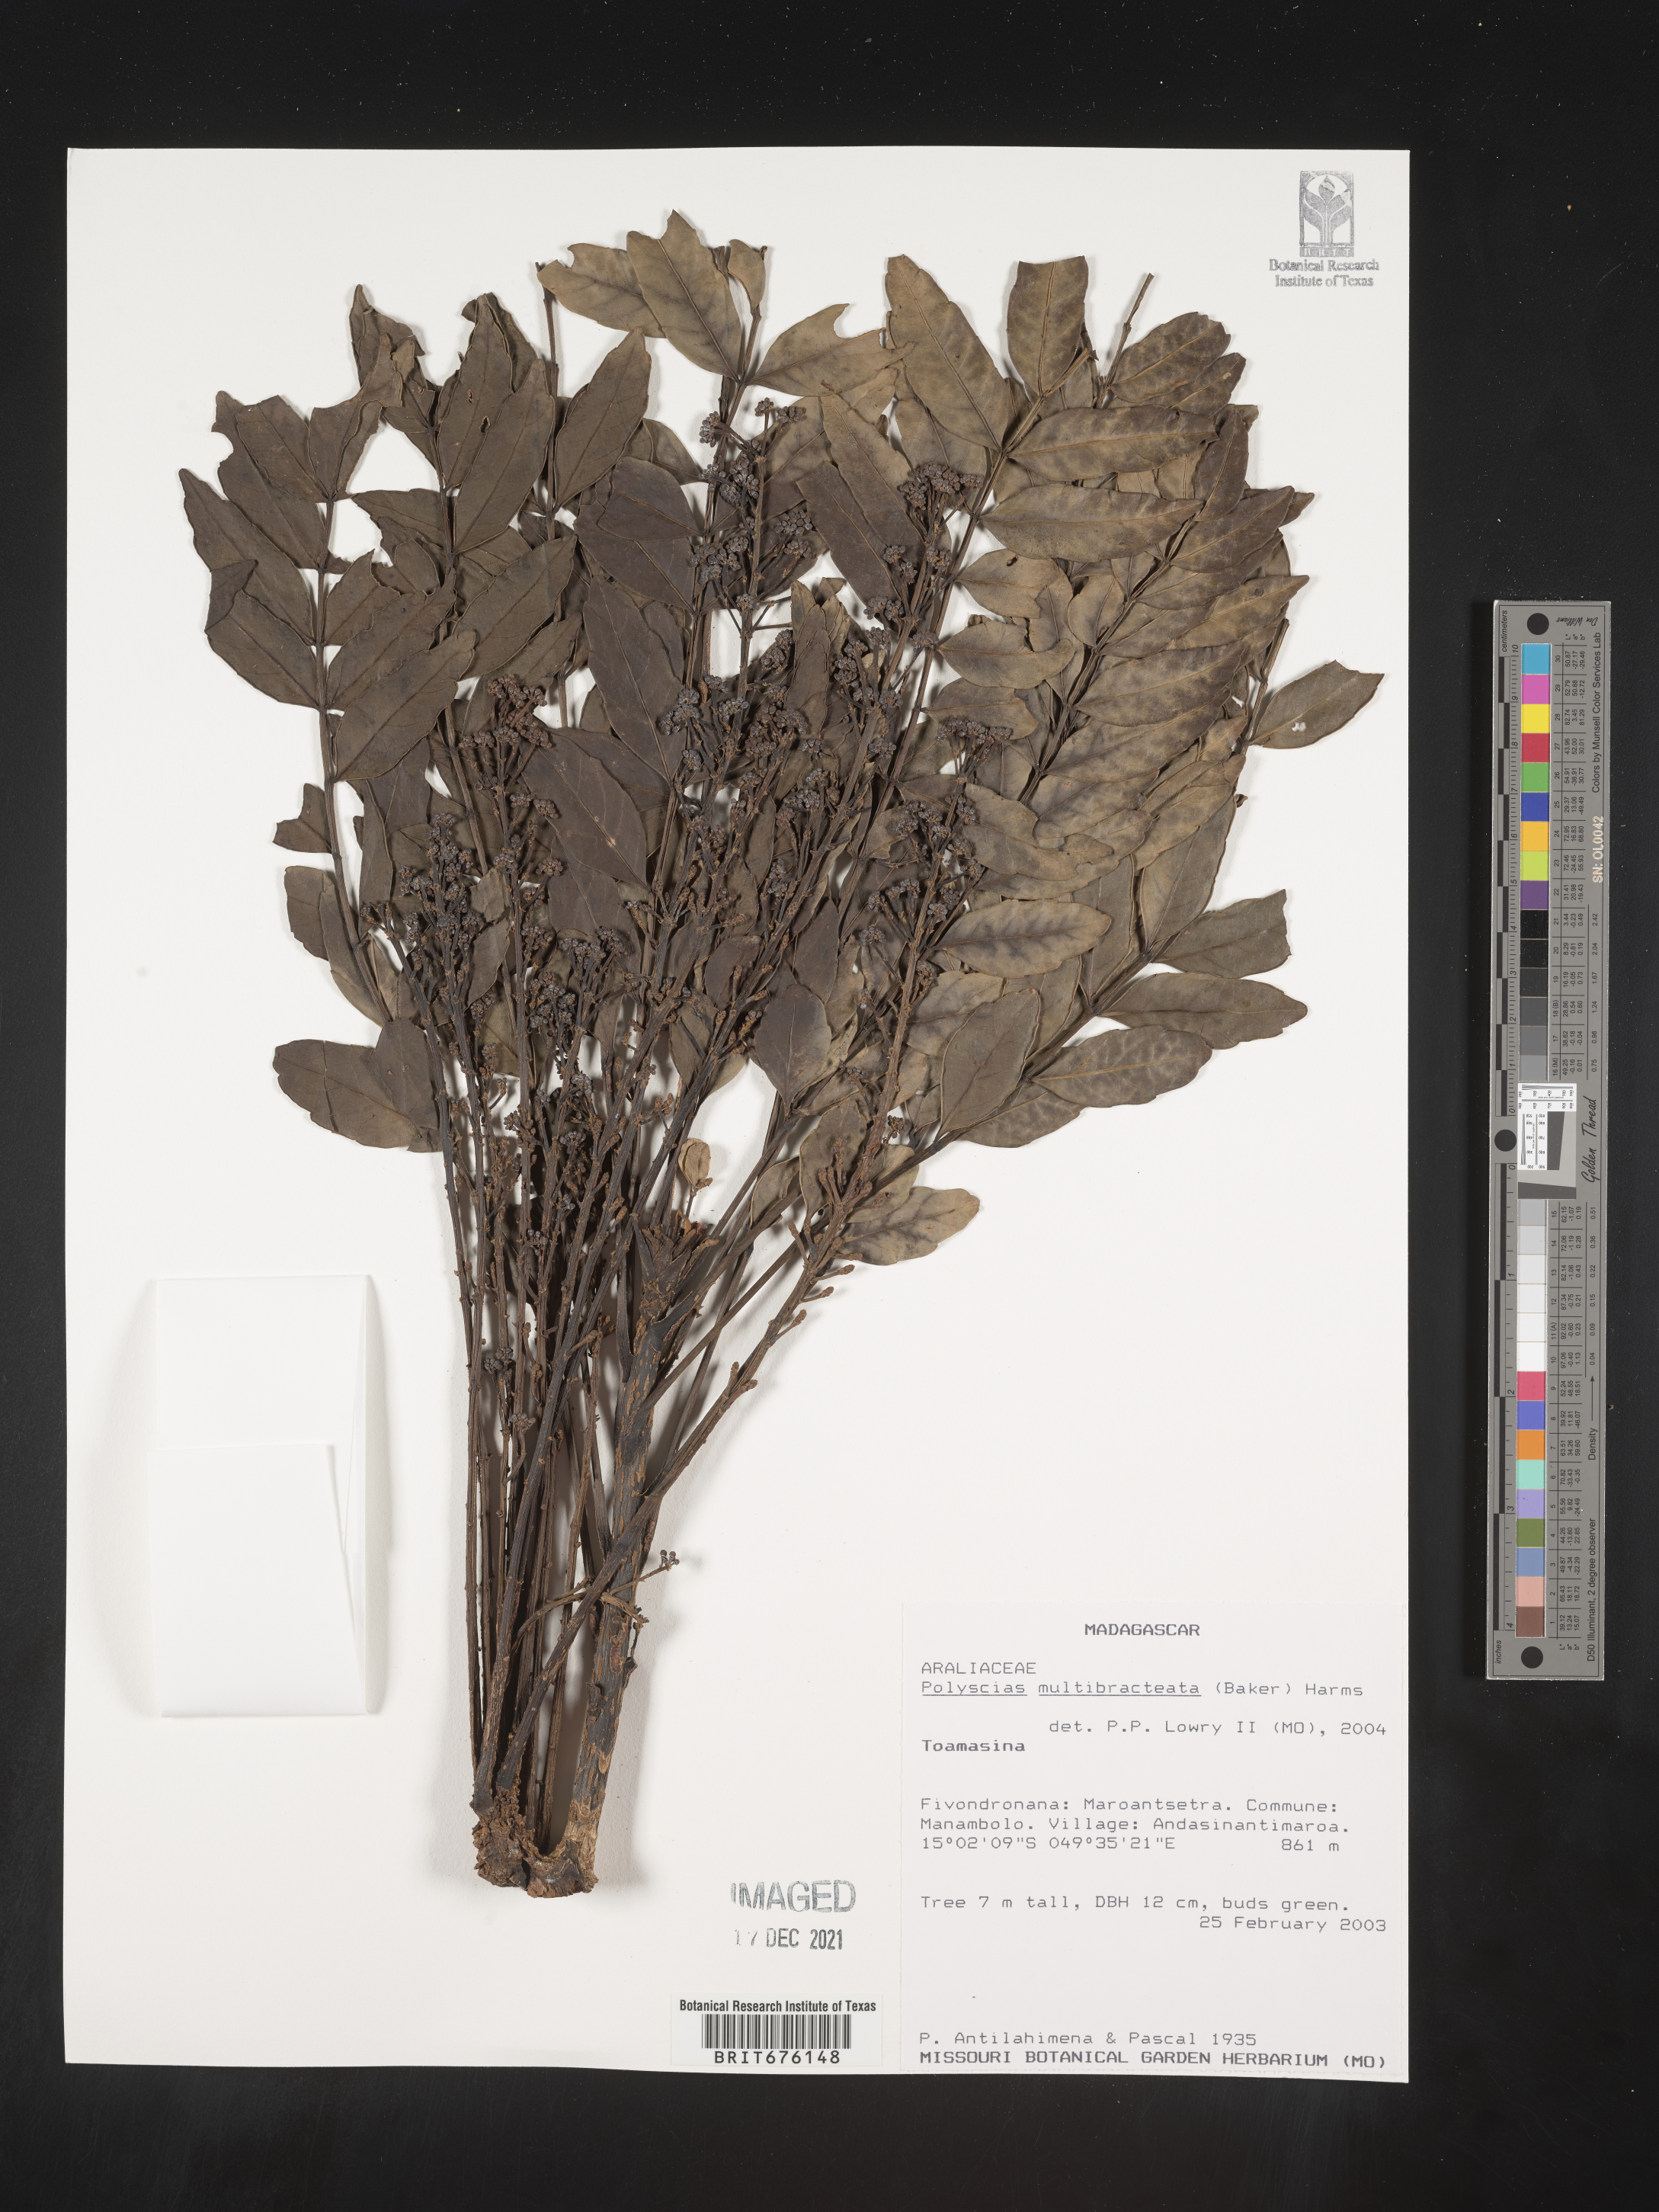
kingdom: Plantae
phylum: Tracheophyta
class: Magnoliopsida
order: Apiales
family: Araliaceae
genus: Polyscias
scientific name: Polyscias
